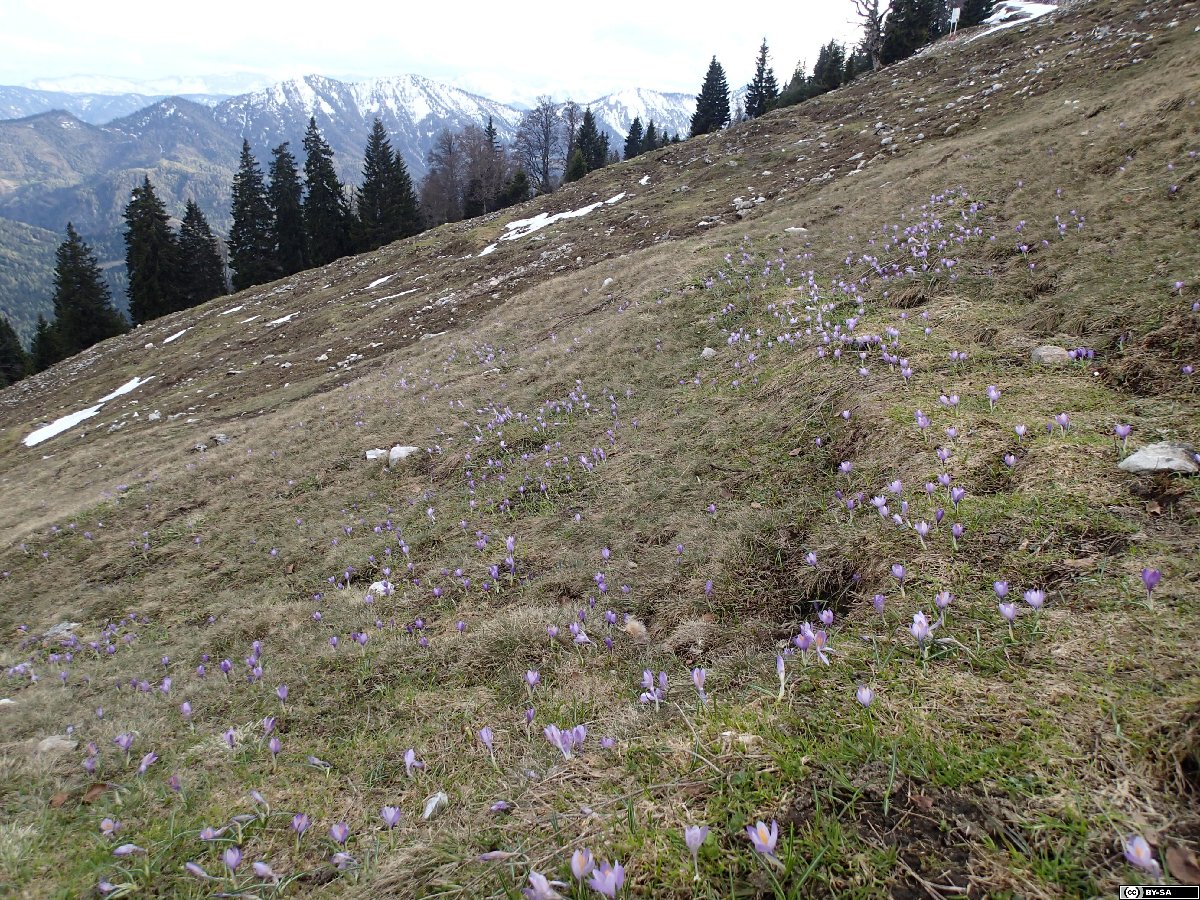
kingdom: Plantae
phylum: Tracheophyta
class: Liliopsida
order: Asparagales
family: Iridaceae
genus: Crocus
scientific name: Crocus neapolitanus
